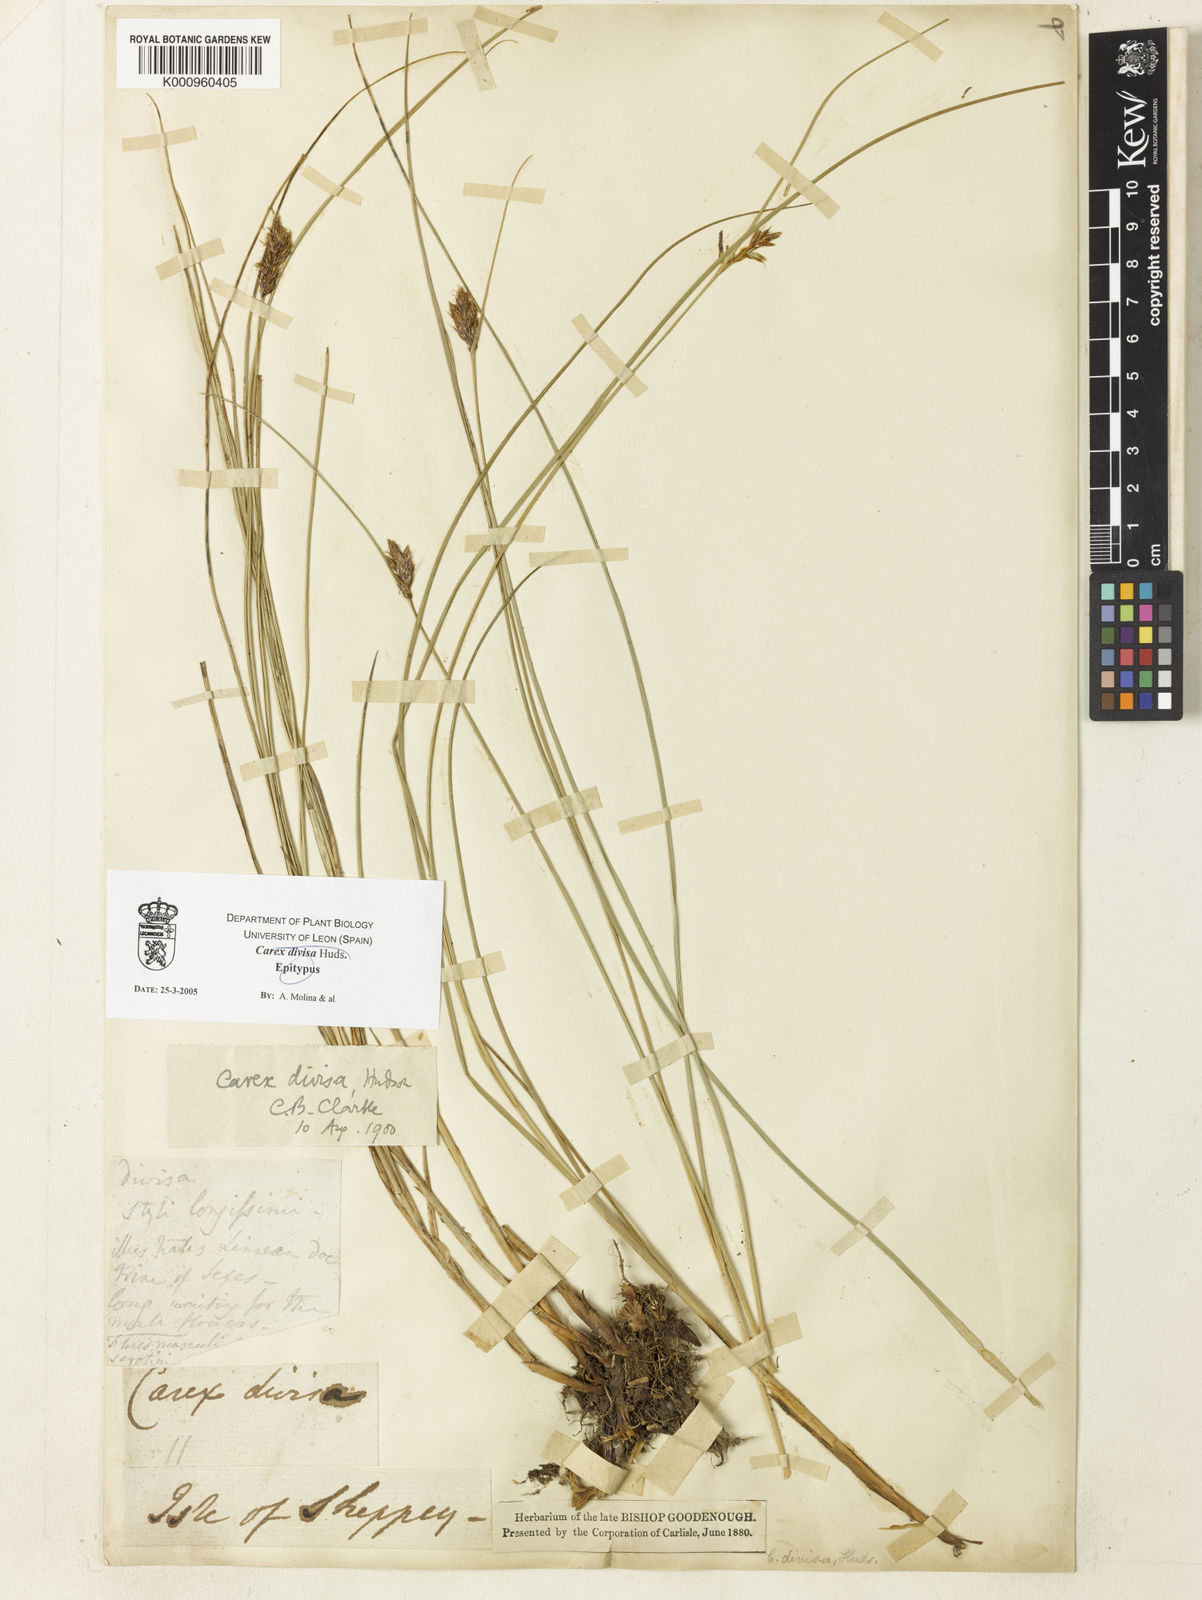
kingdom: Plantae
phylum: Tracheophyta
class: Liliopsida
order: Poales
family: Cyperaceae
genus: Carex
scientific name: Carex divisa
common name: Divided sedge
